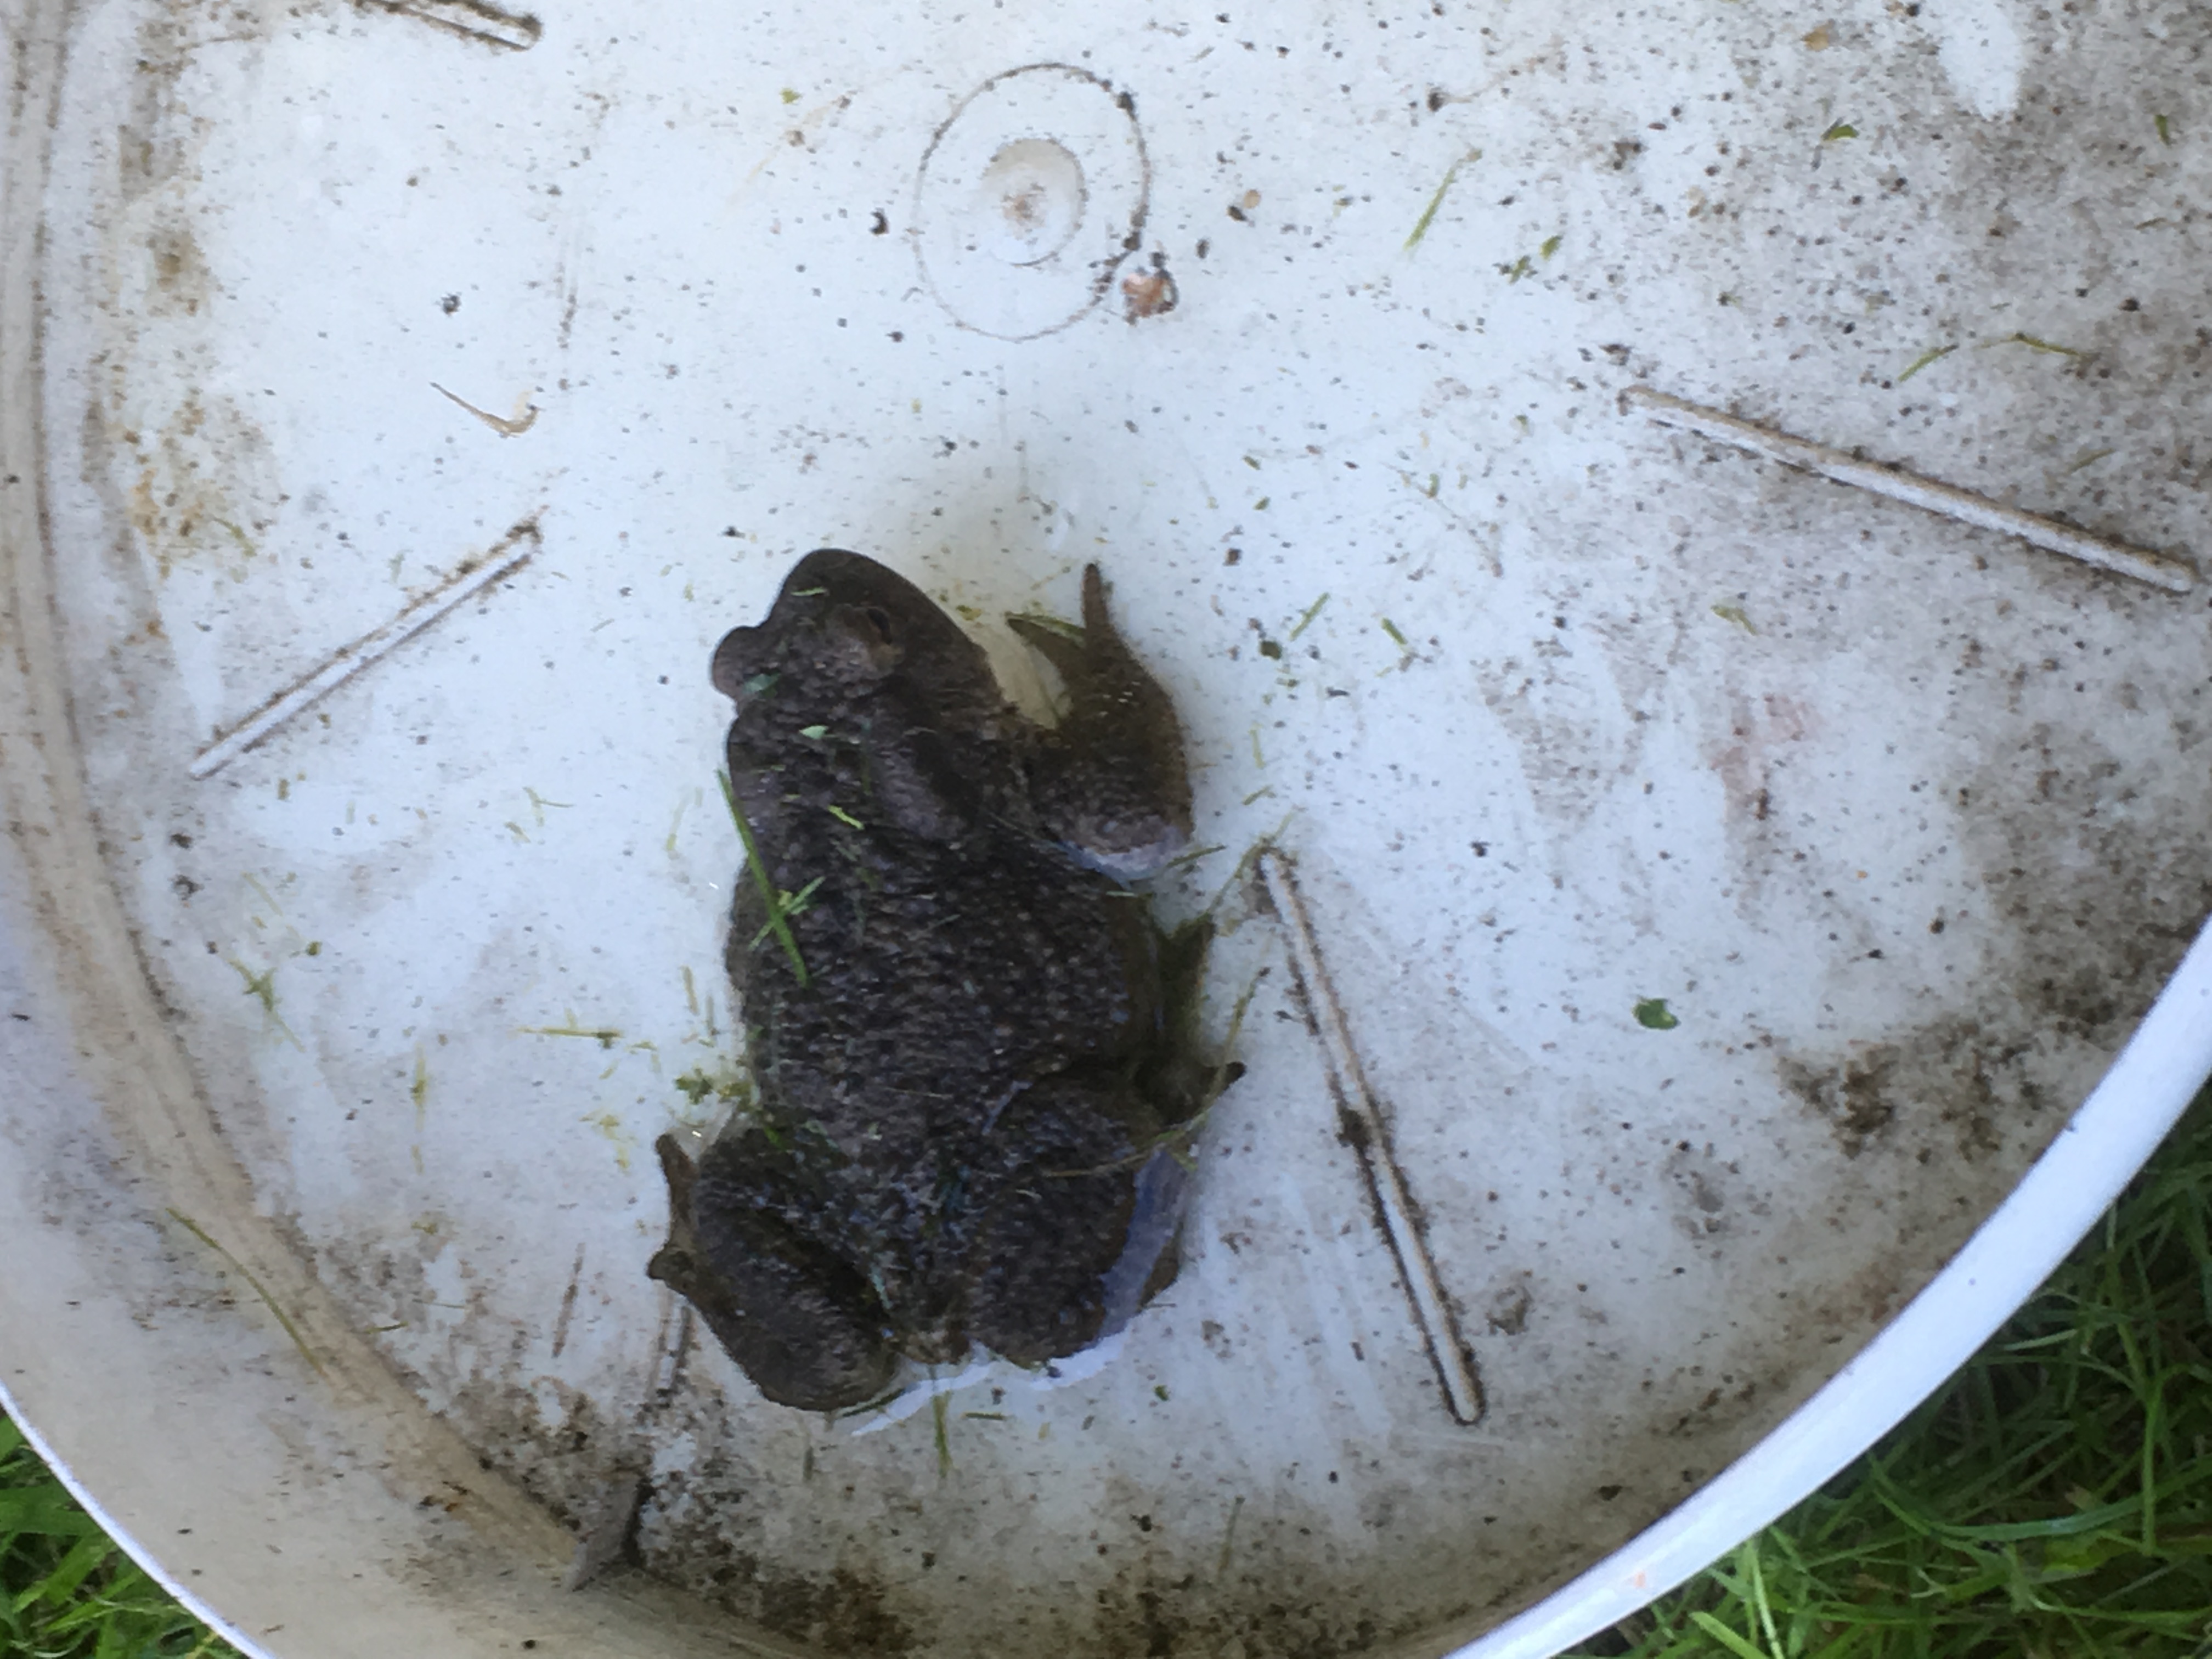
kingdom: Animalia
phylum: Chordata
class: Amphibia
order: Anura
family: Bufonidae
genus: Bufo
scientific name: Bufo bufo
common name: Common toad
